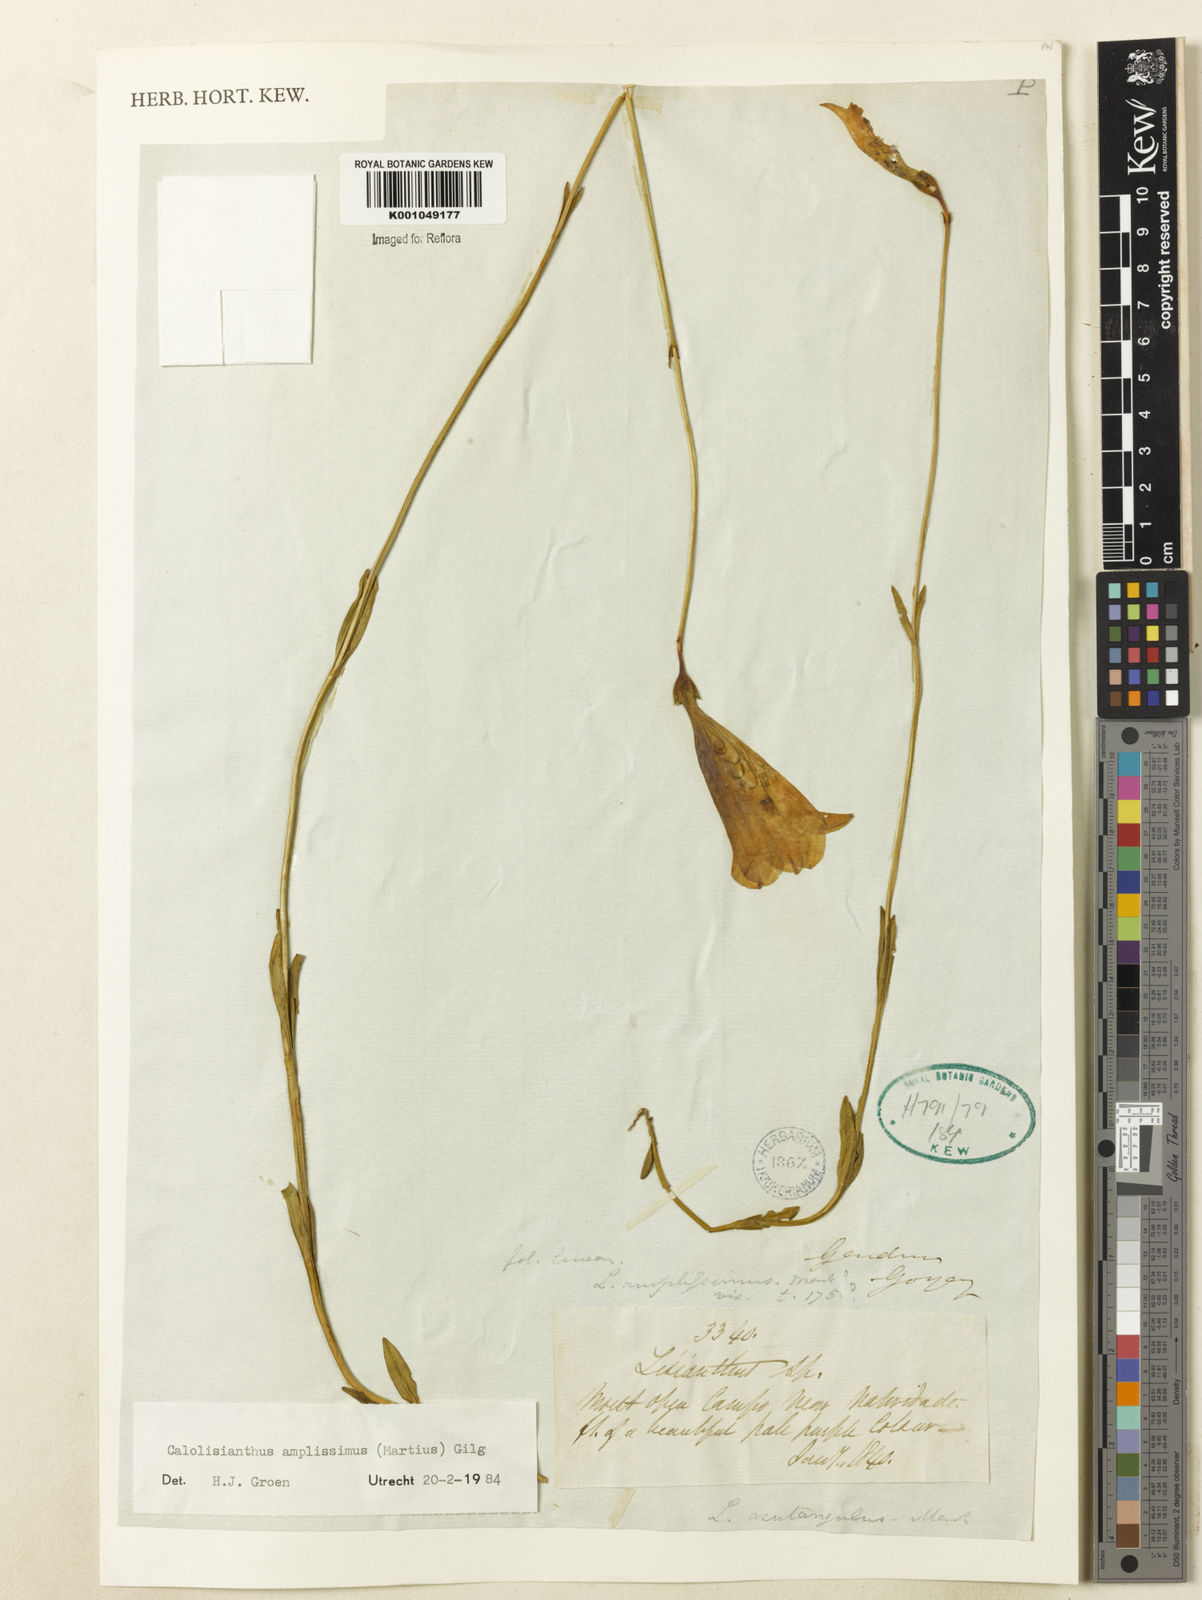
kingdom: Plantae
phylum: Tracheophyta
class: Magnoliopsida
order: Gentianales
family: Gentianaceae
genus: Calolisianthus
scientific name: Calolisianthus amplissimus
